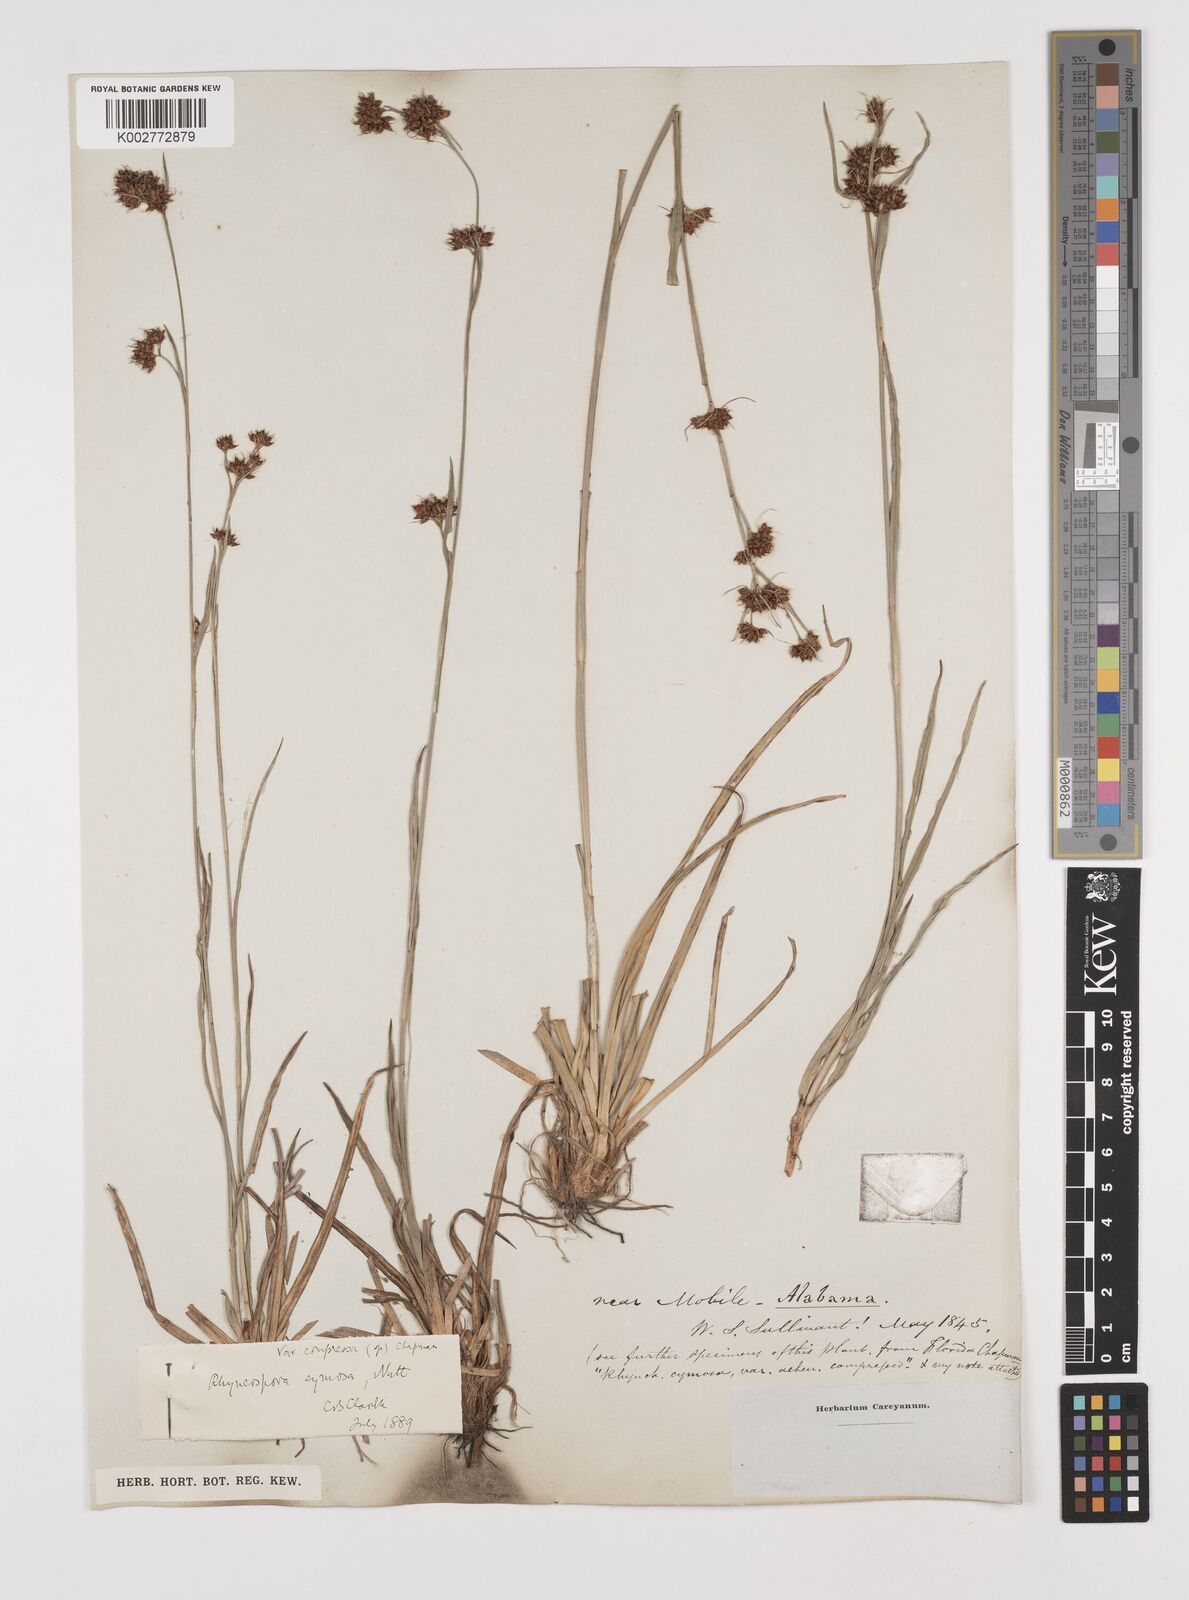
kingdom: Plantae
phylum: Tracheophyta
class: Liliopsida
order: Poales
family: Cyperaceae
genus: Scirpus
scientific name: Scirpus polyphyllus
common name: Leafy bulrush
